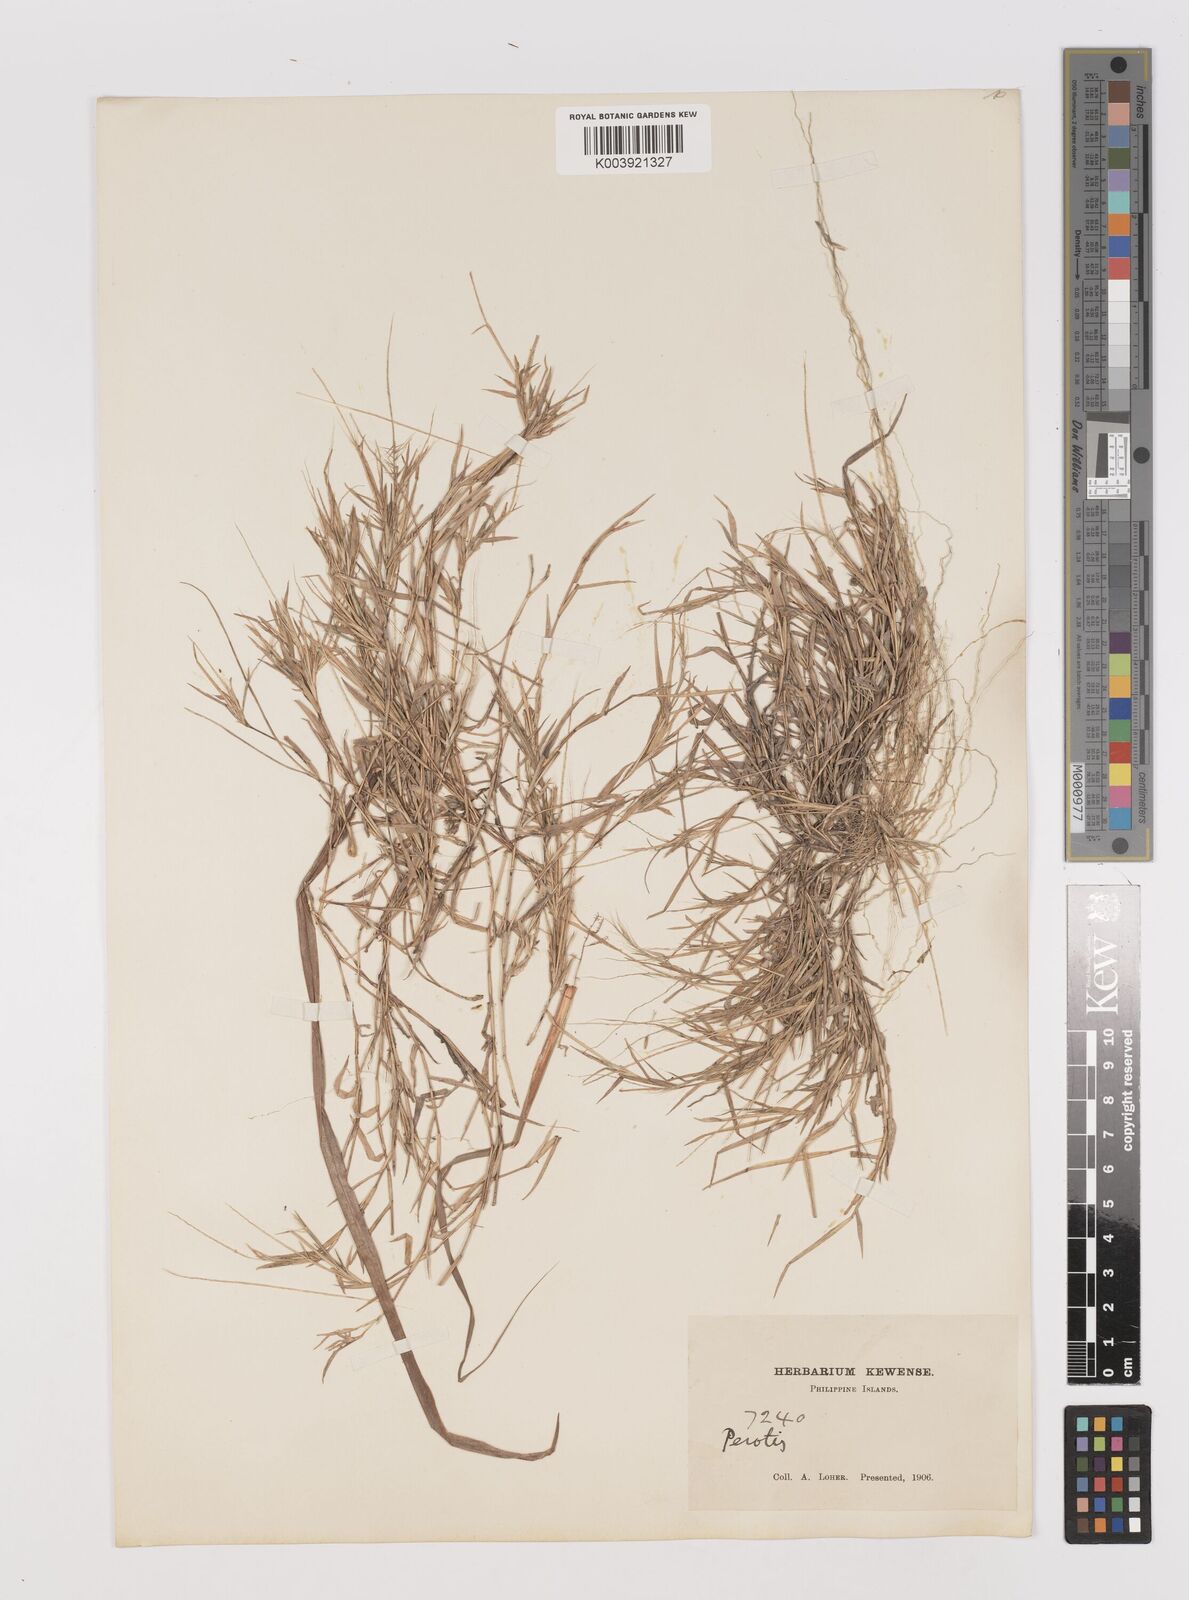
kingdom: Plantae
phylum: Tracheophyta
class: Liliopsida
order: Poales
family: Poaceae
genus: Perotis
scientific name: Perotis rara
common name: Comet grass
